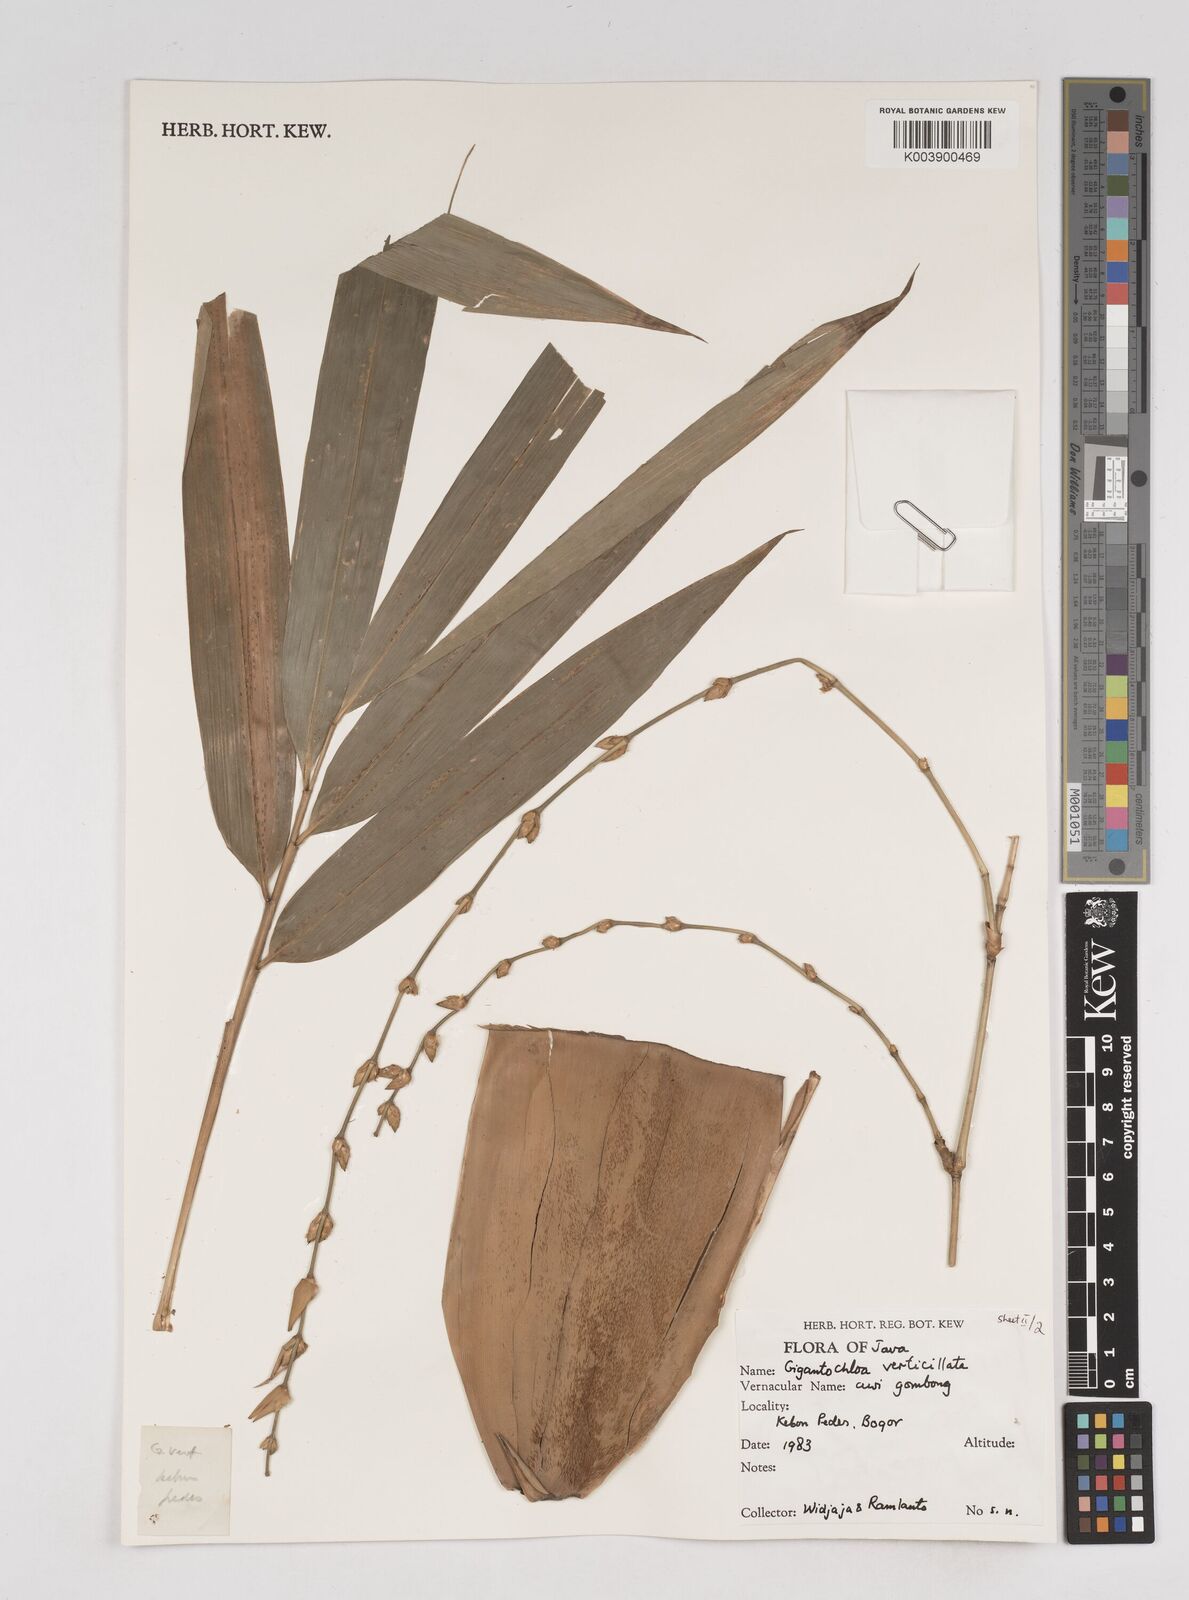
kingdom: Plantae
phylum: Tracheophyta
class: Liliopsida
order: Poales
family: Poaceae
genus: Gigantochloa
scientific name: Gigantochloa verticillata
